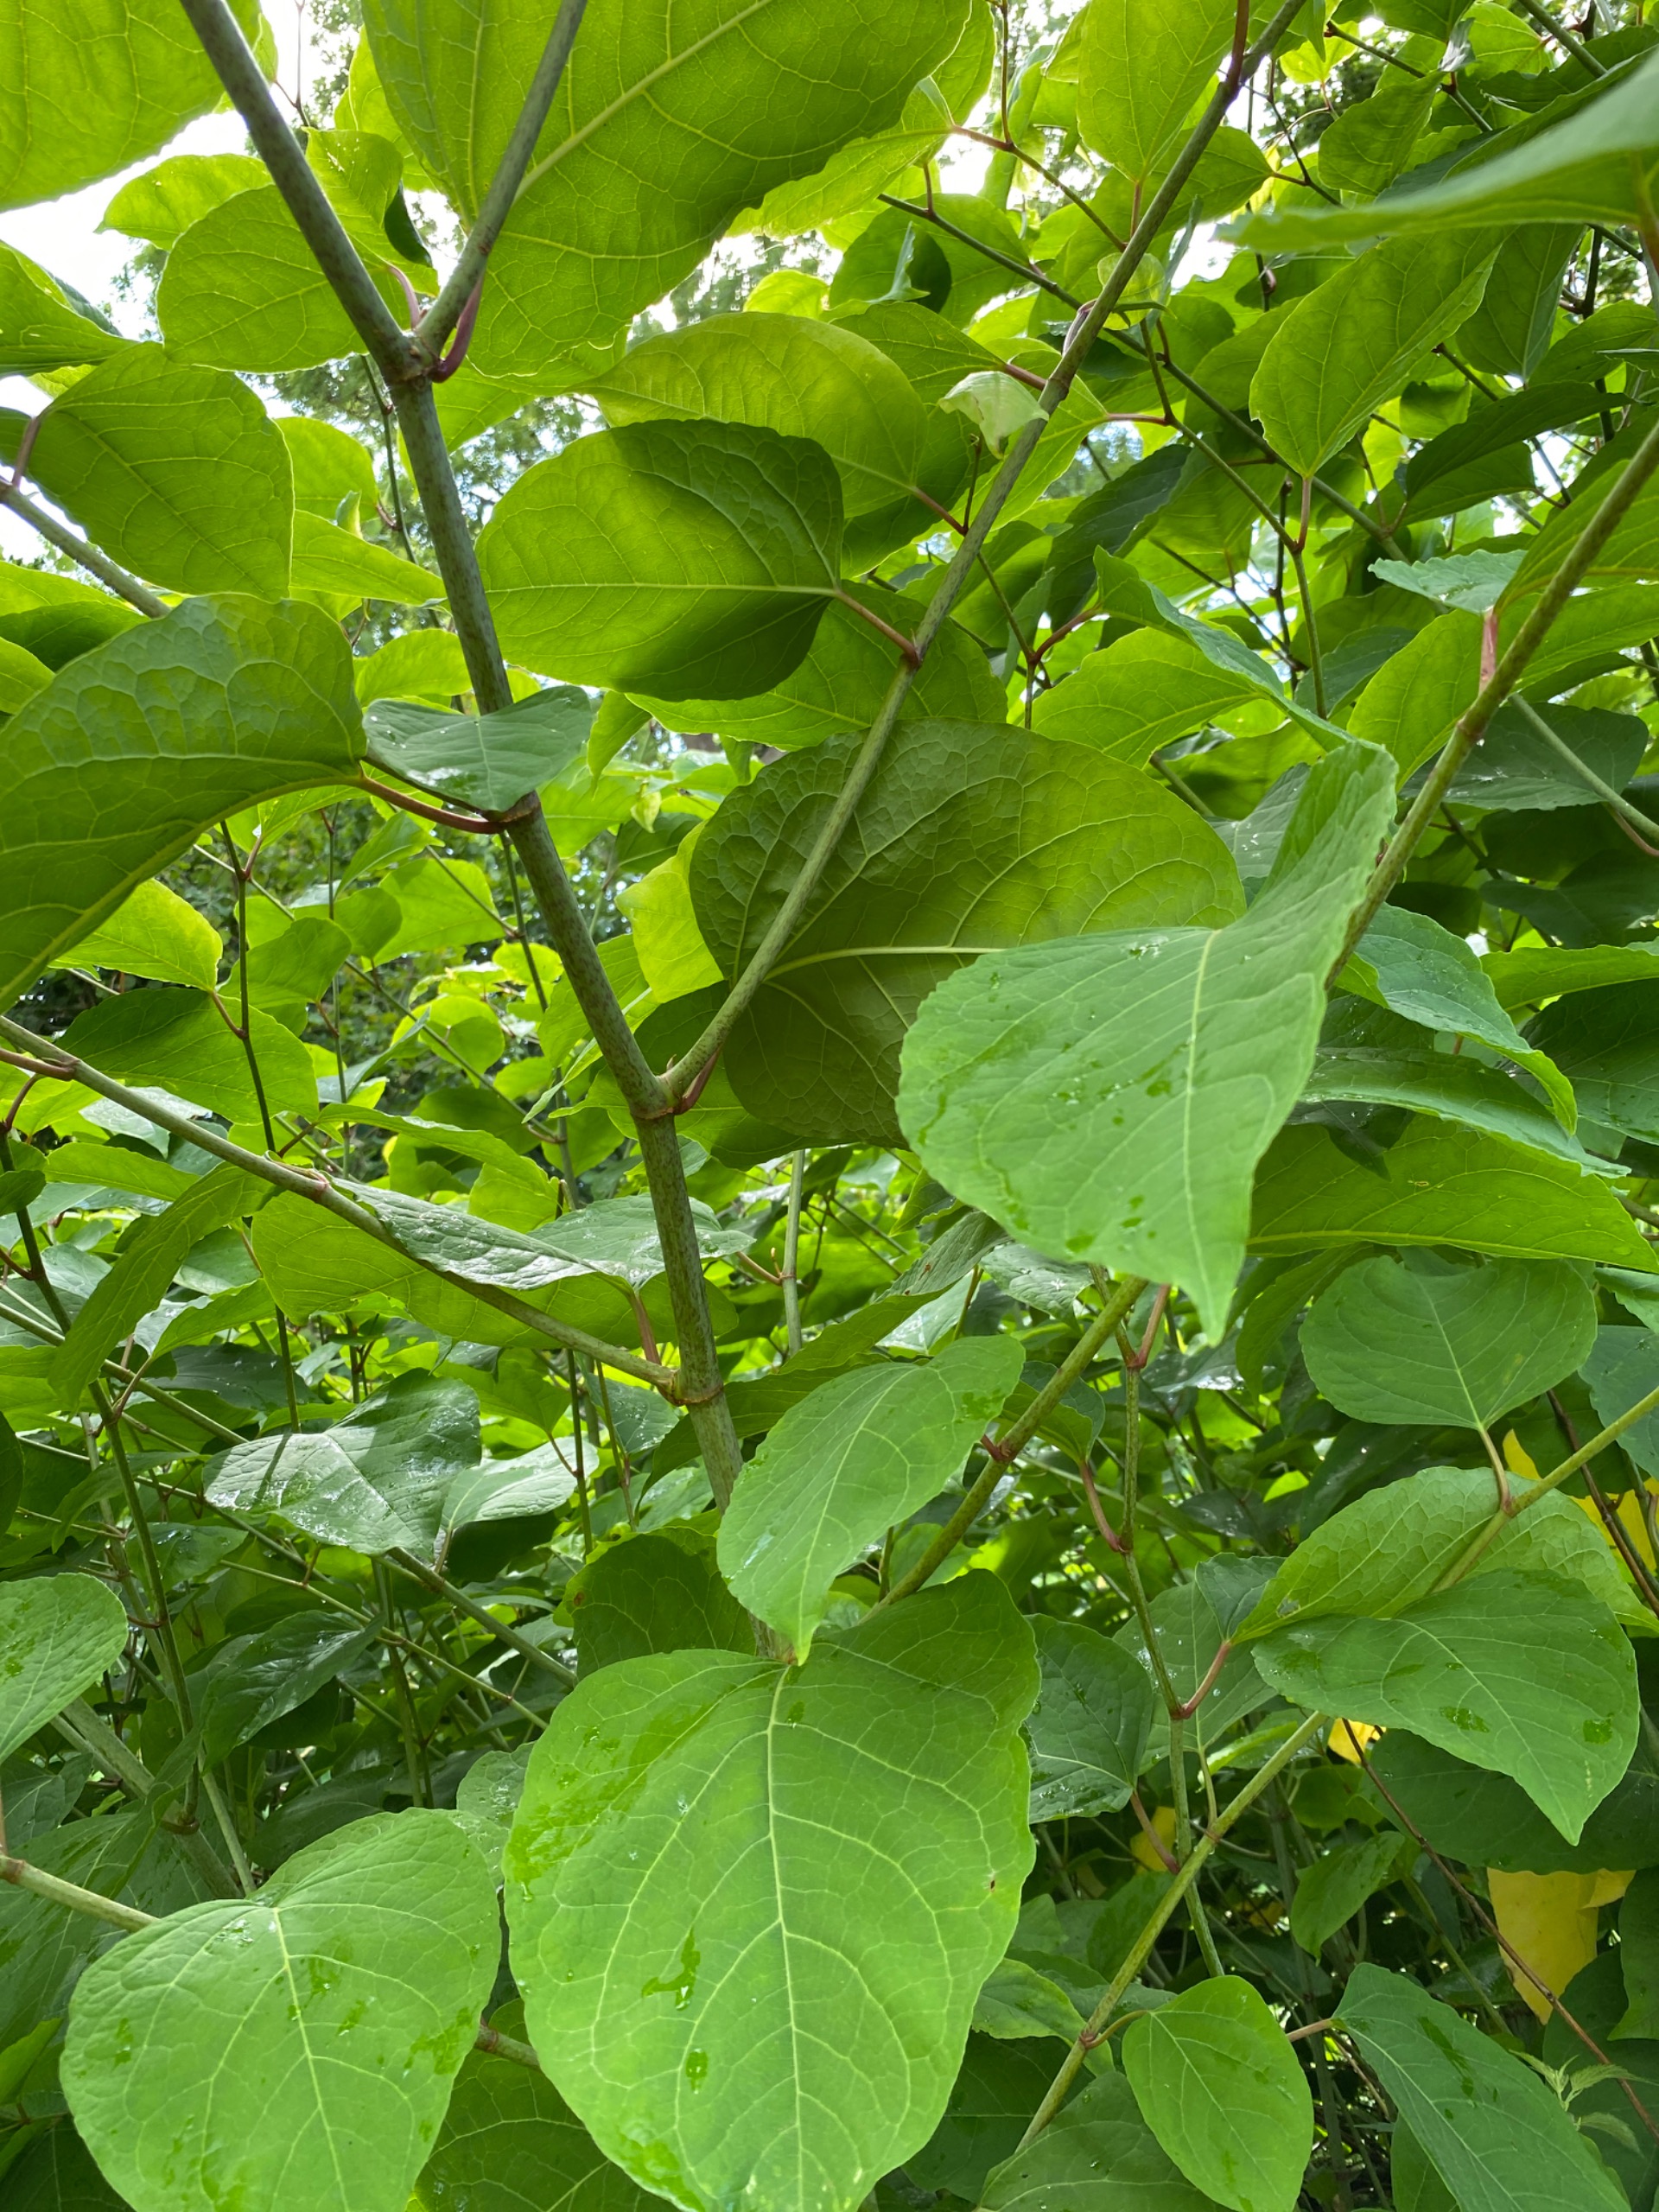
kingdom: Plantae
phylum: Tracheophyta
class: Magnoliopsida
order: Caryophyllales
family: Polygonaceae
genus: Reynoutria
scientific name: Reynoutria japonica
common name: Japan-pileurt
